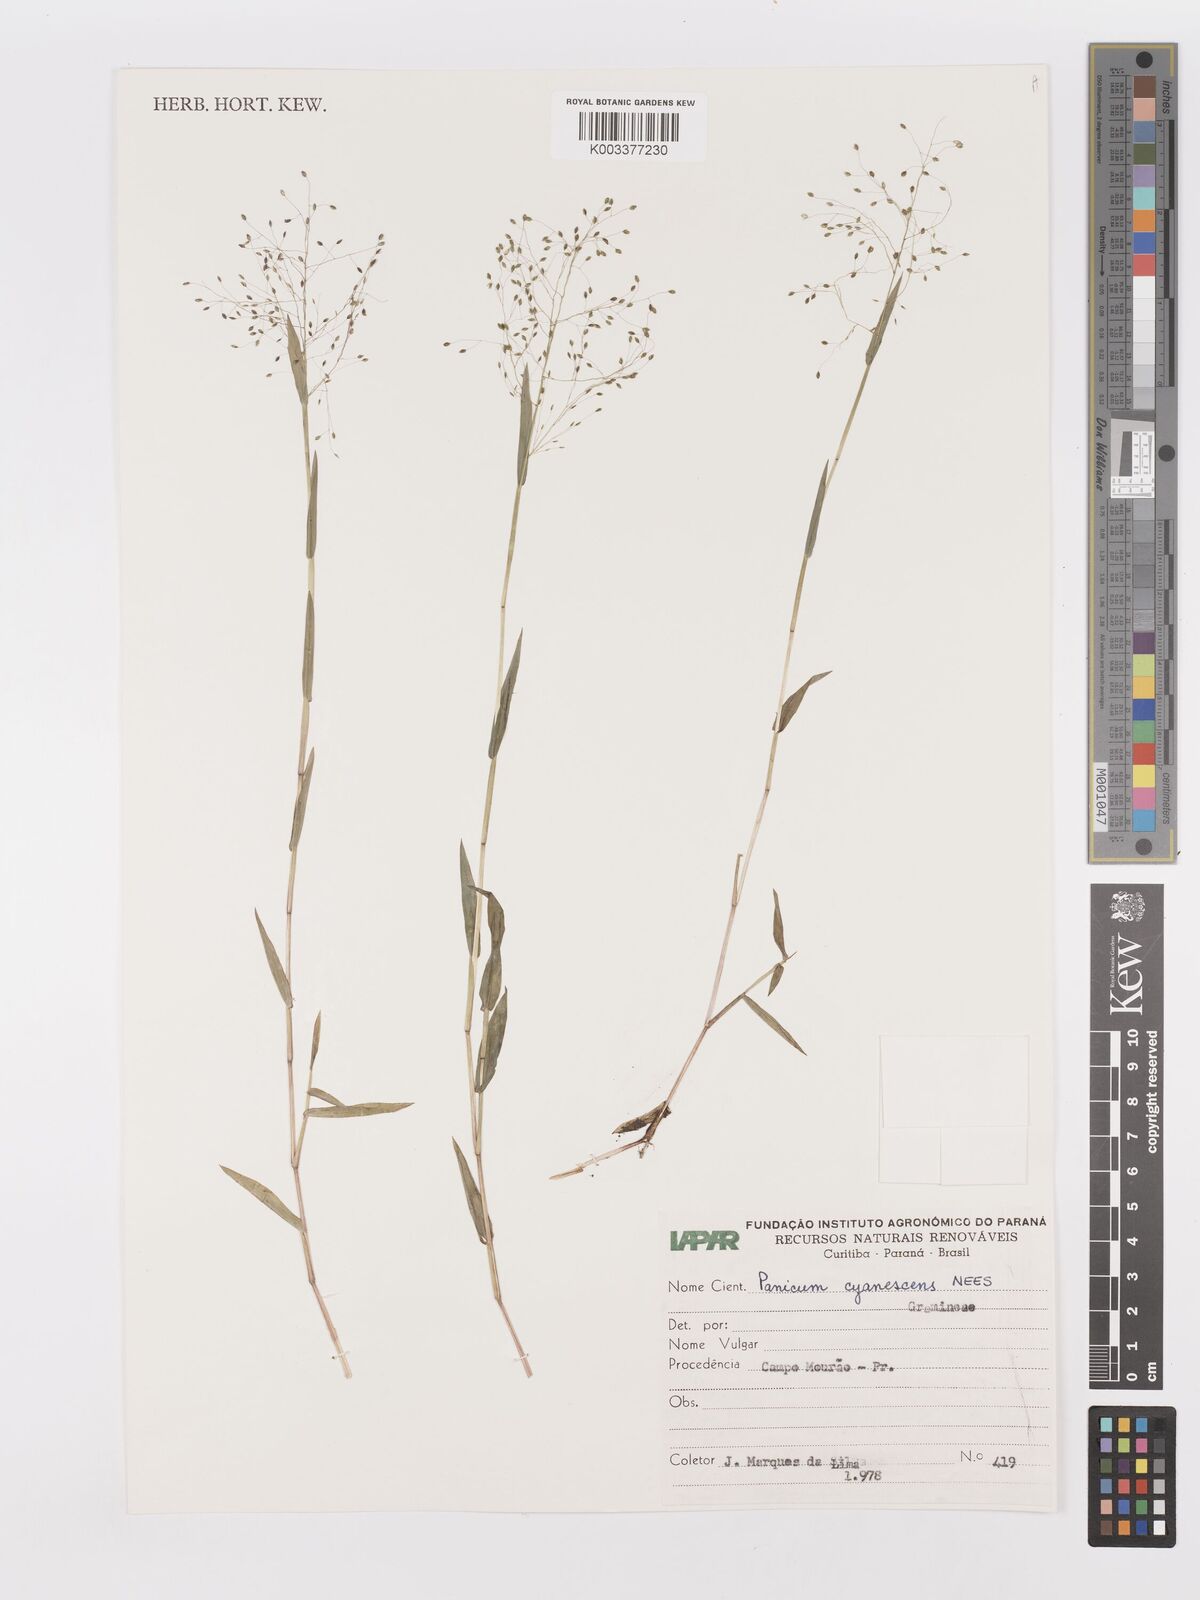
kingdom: Plantae
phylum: Tracheophyta
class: Liliopsida
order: Poales
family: Poaceae
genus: Trichanthecium
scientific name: Trichanthecium schwackeanum
